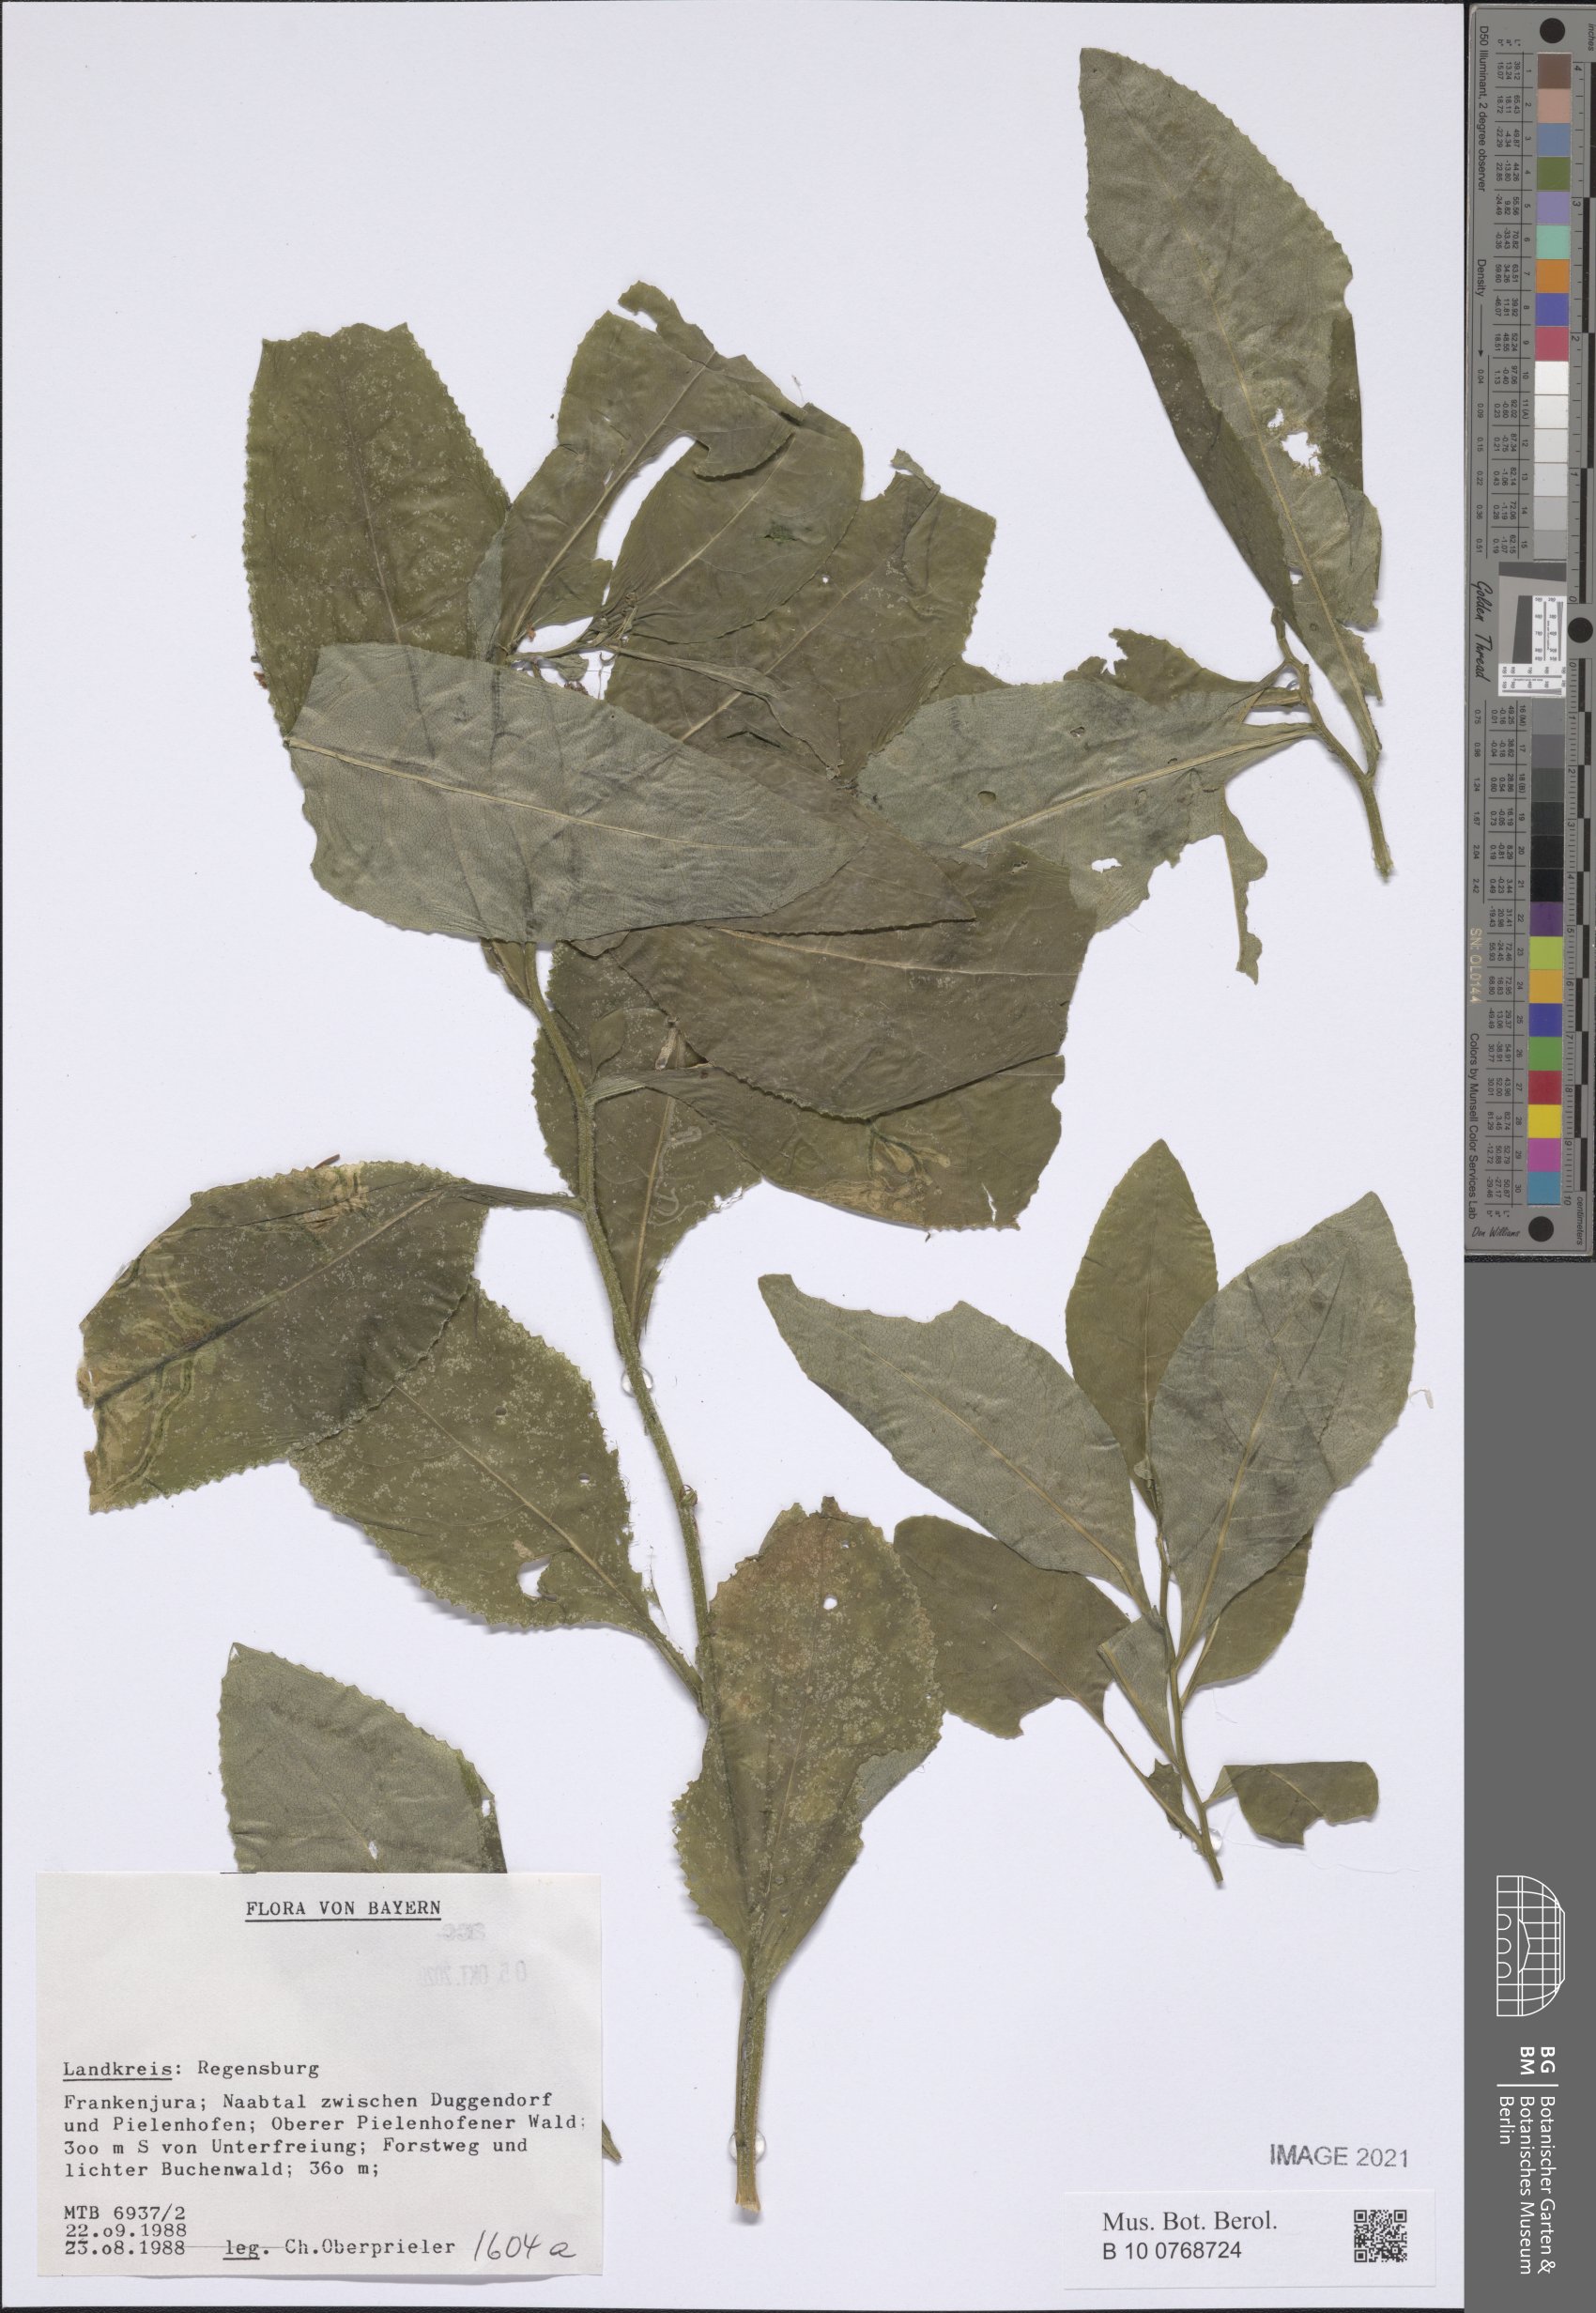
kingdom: Plantae
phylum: Tracheophyta
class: Magnoliopsida
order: Asterales
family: Asteraceae
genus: Senecio
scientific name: Senecio
